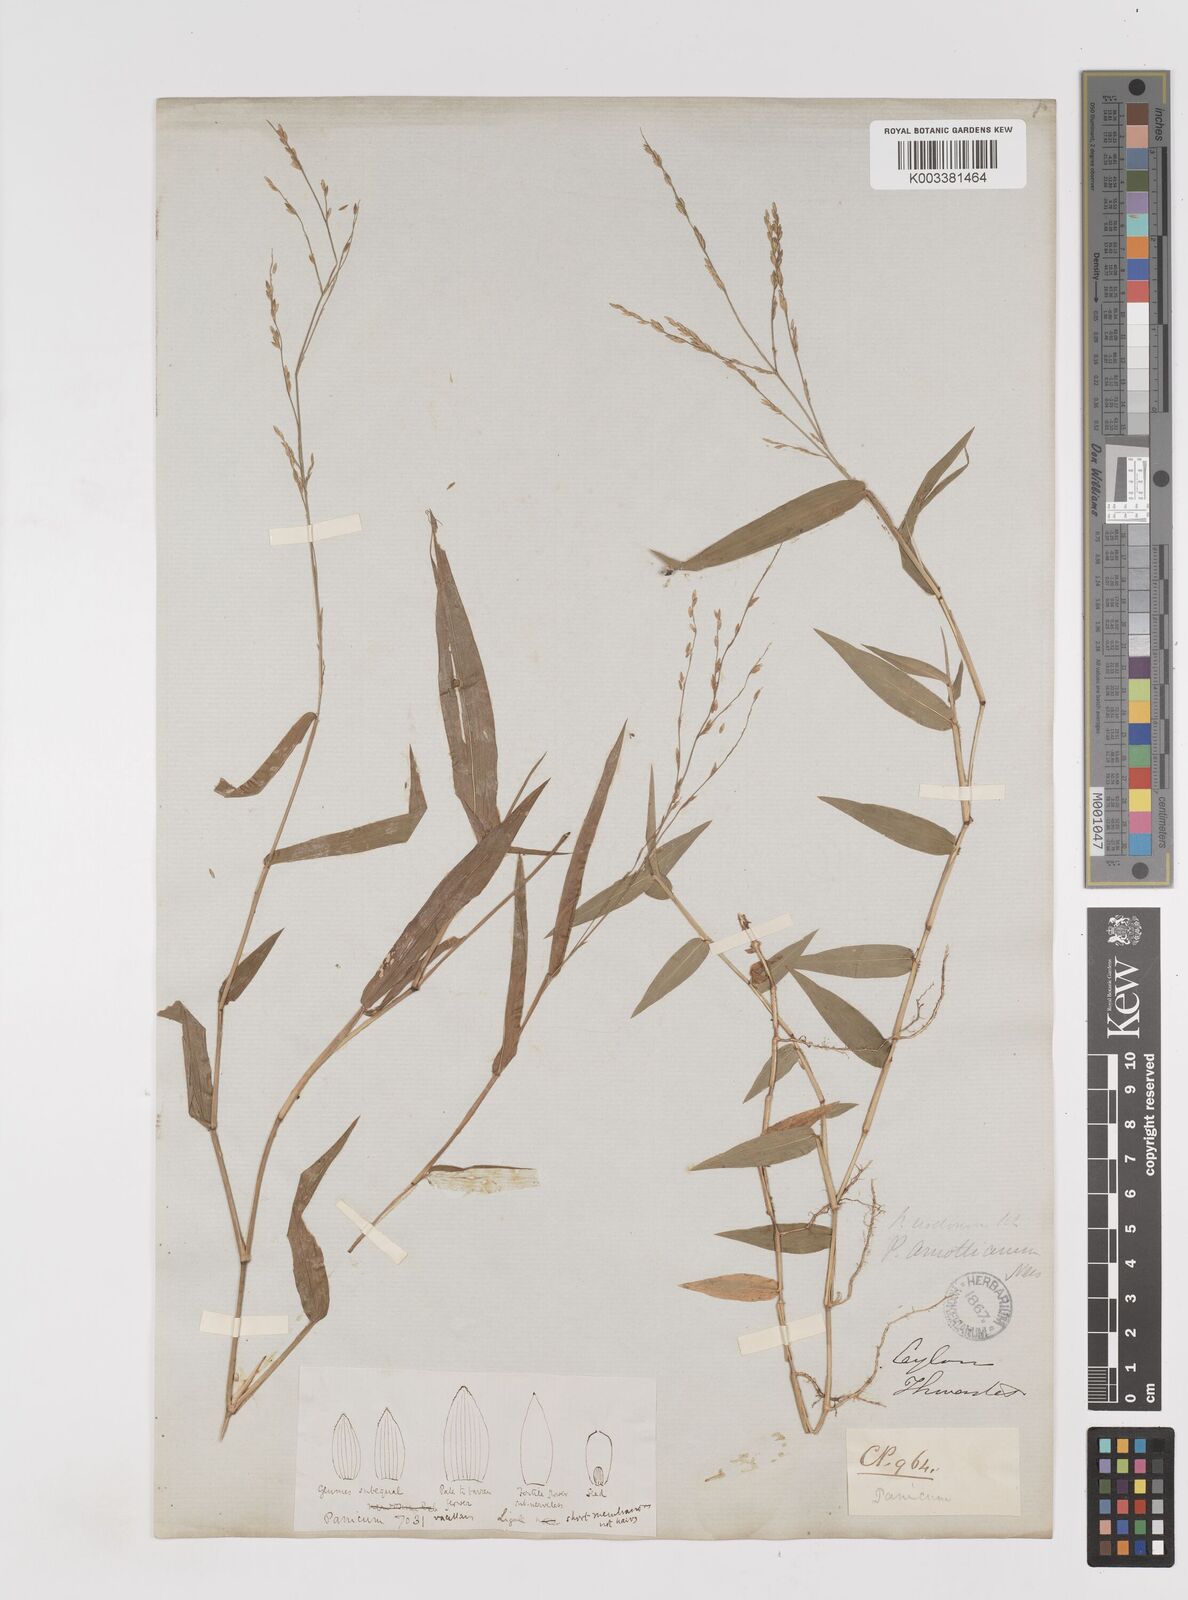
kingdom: Plantae
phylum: Tracheophyta
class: Liliopsida
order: Poales
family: Poaceae
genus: Ottochloa
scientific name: Ottochloa nodosa
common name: Slender-panic grass
